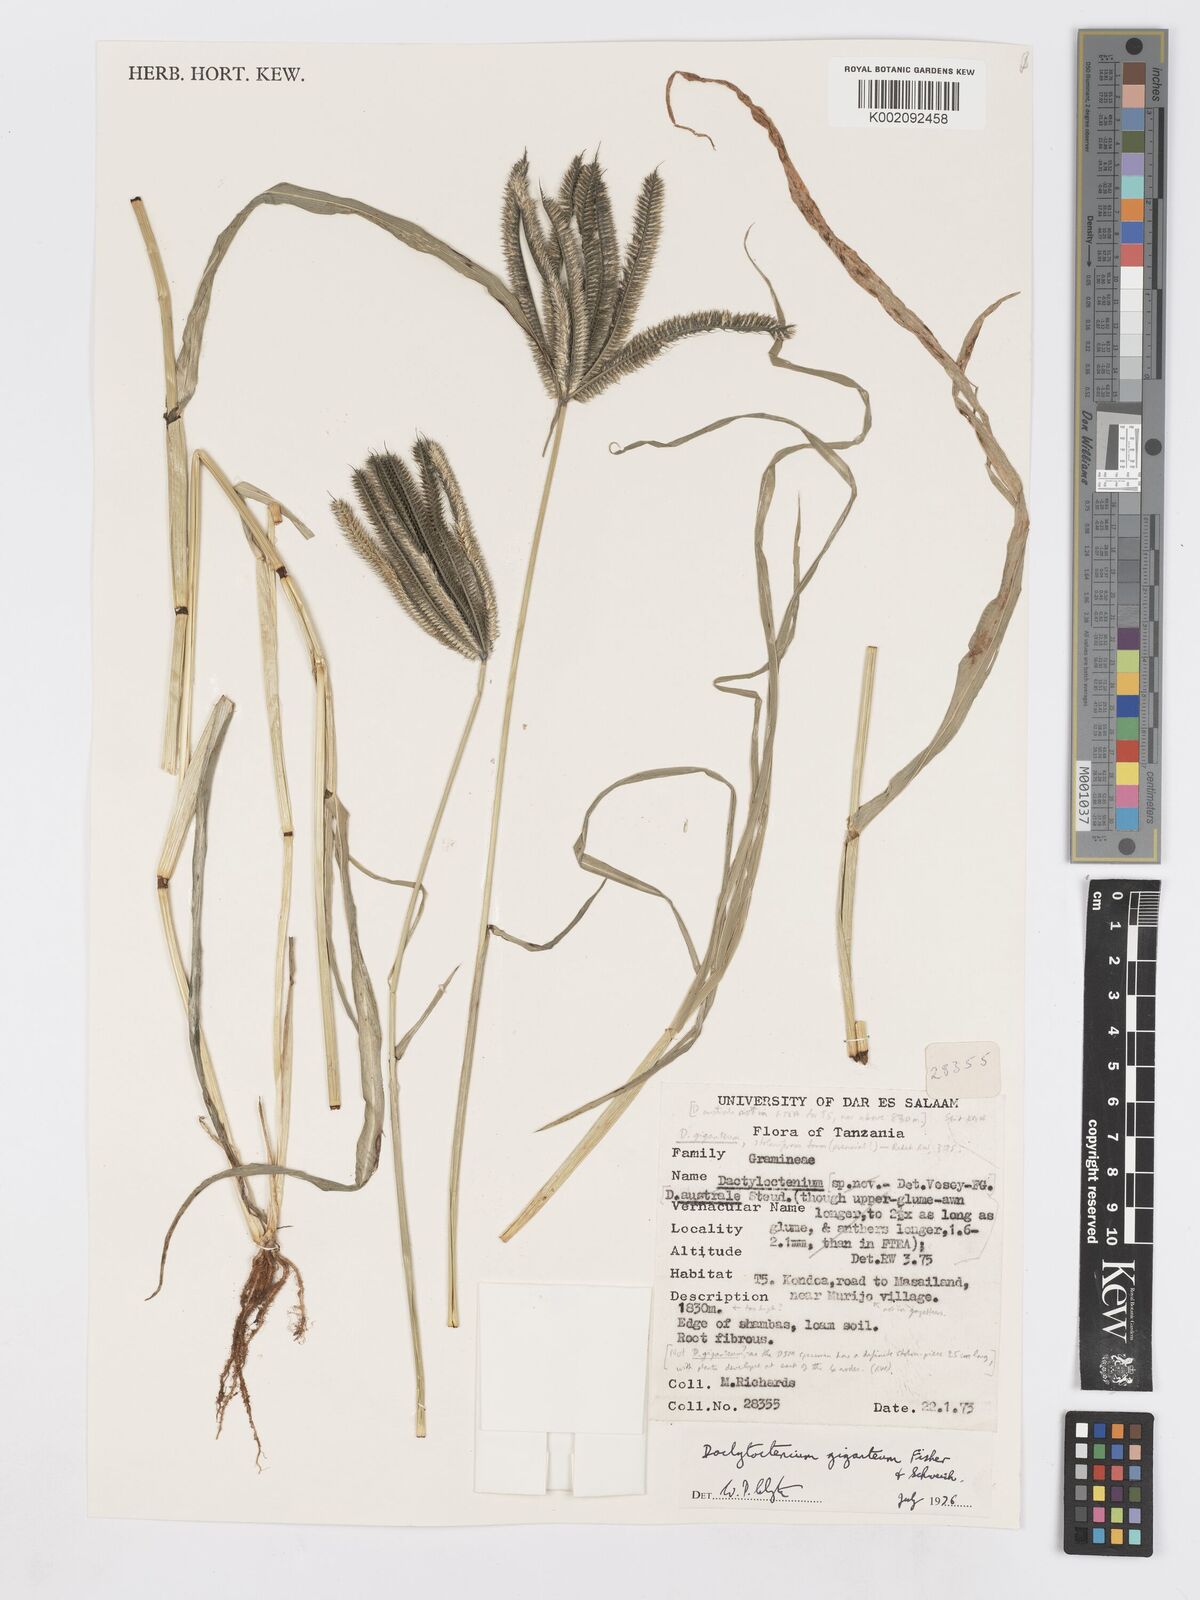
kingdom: Plantae
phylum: Tracheophyta
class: Liliopsida
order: Poales
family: Poaceae
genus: Dactyloctenium
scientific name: Dactyloctenium giganteum
